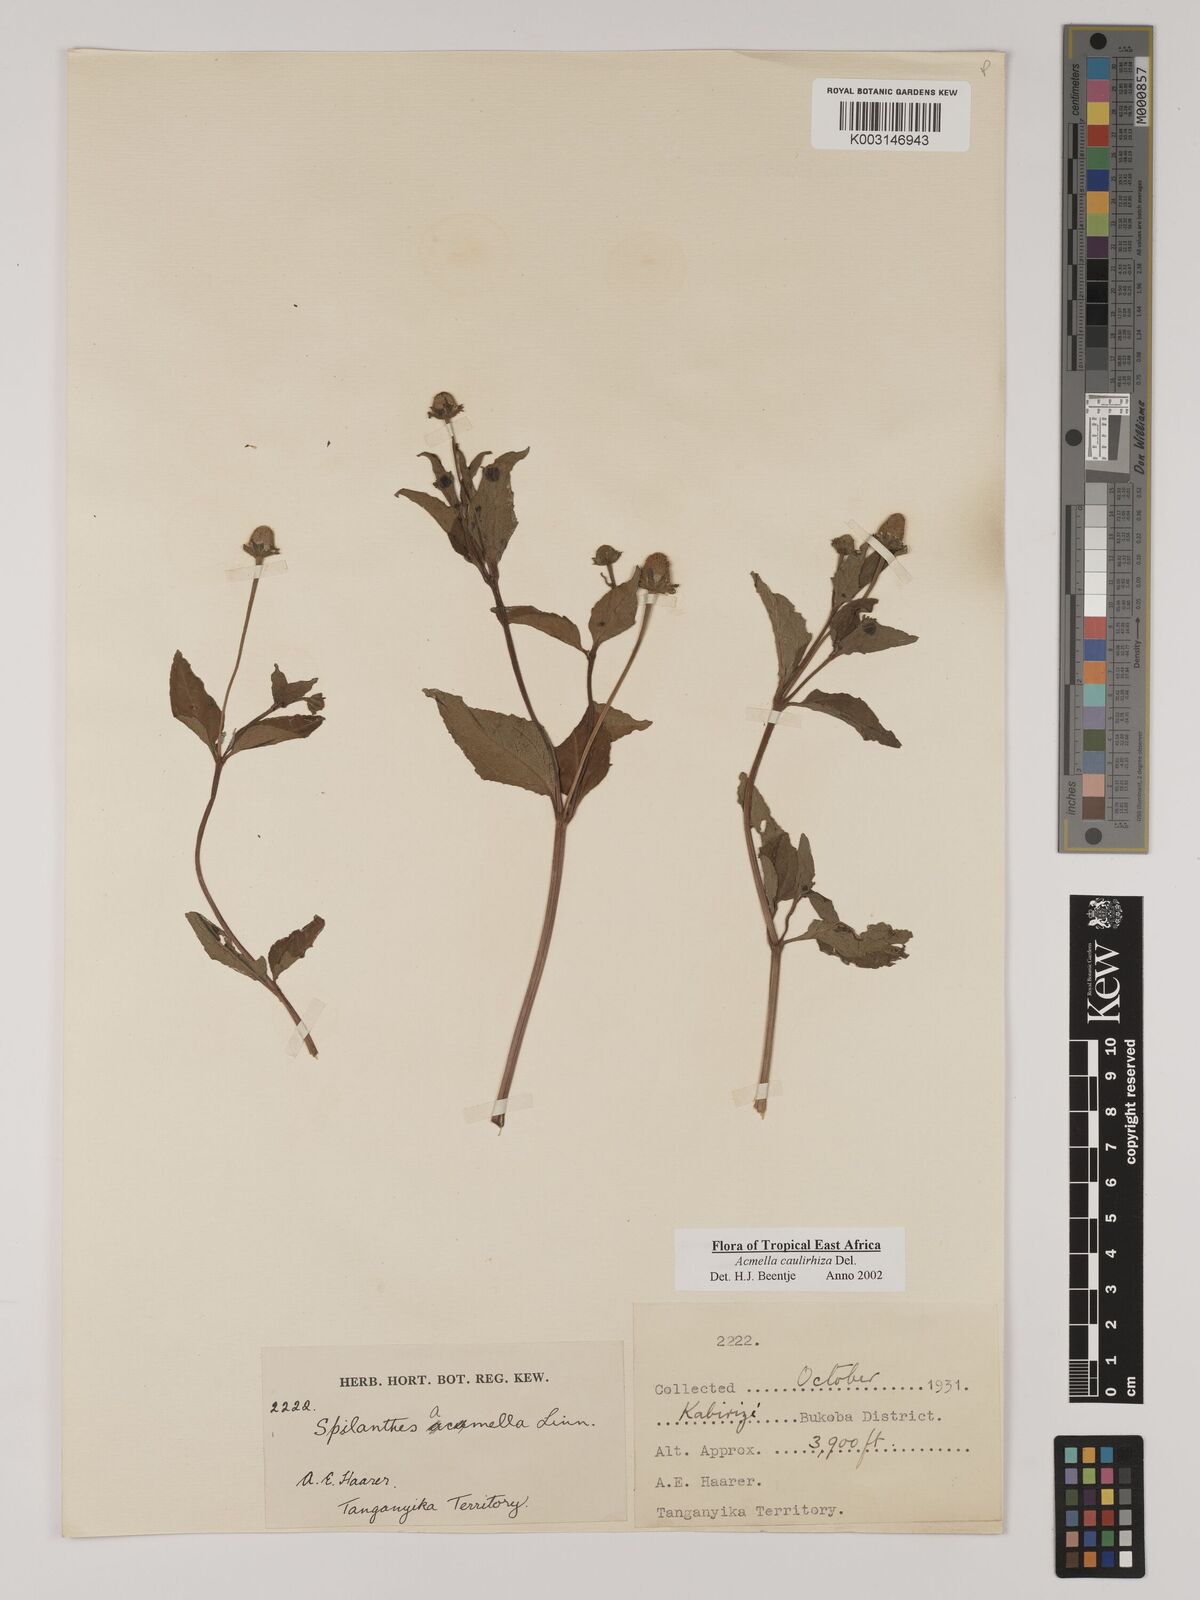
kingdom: Plantae
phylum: Tracheophyta
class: Magnoliopsida
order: Asterales
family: Asteraceae
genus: Acmella
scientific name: Acmella caulirhiza
